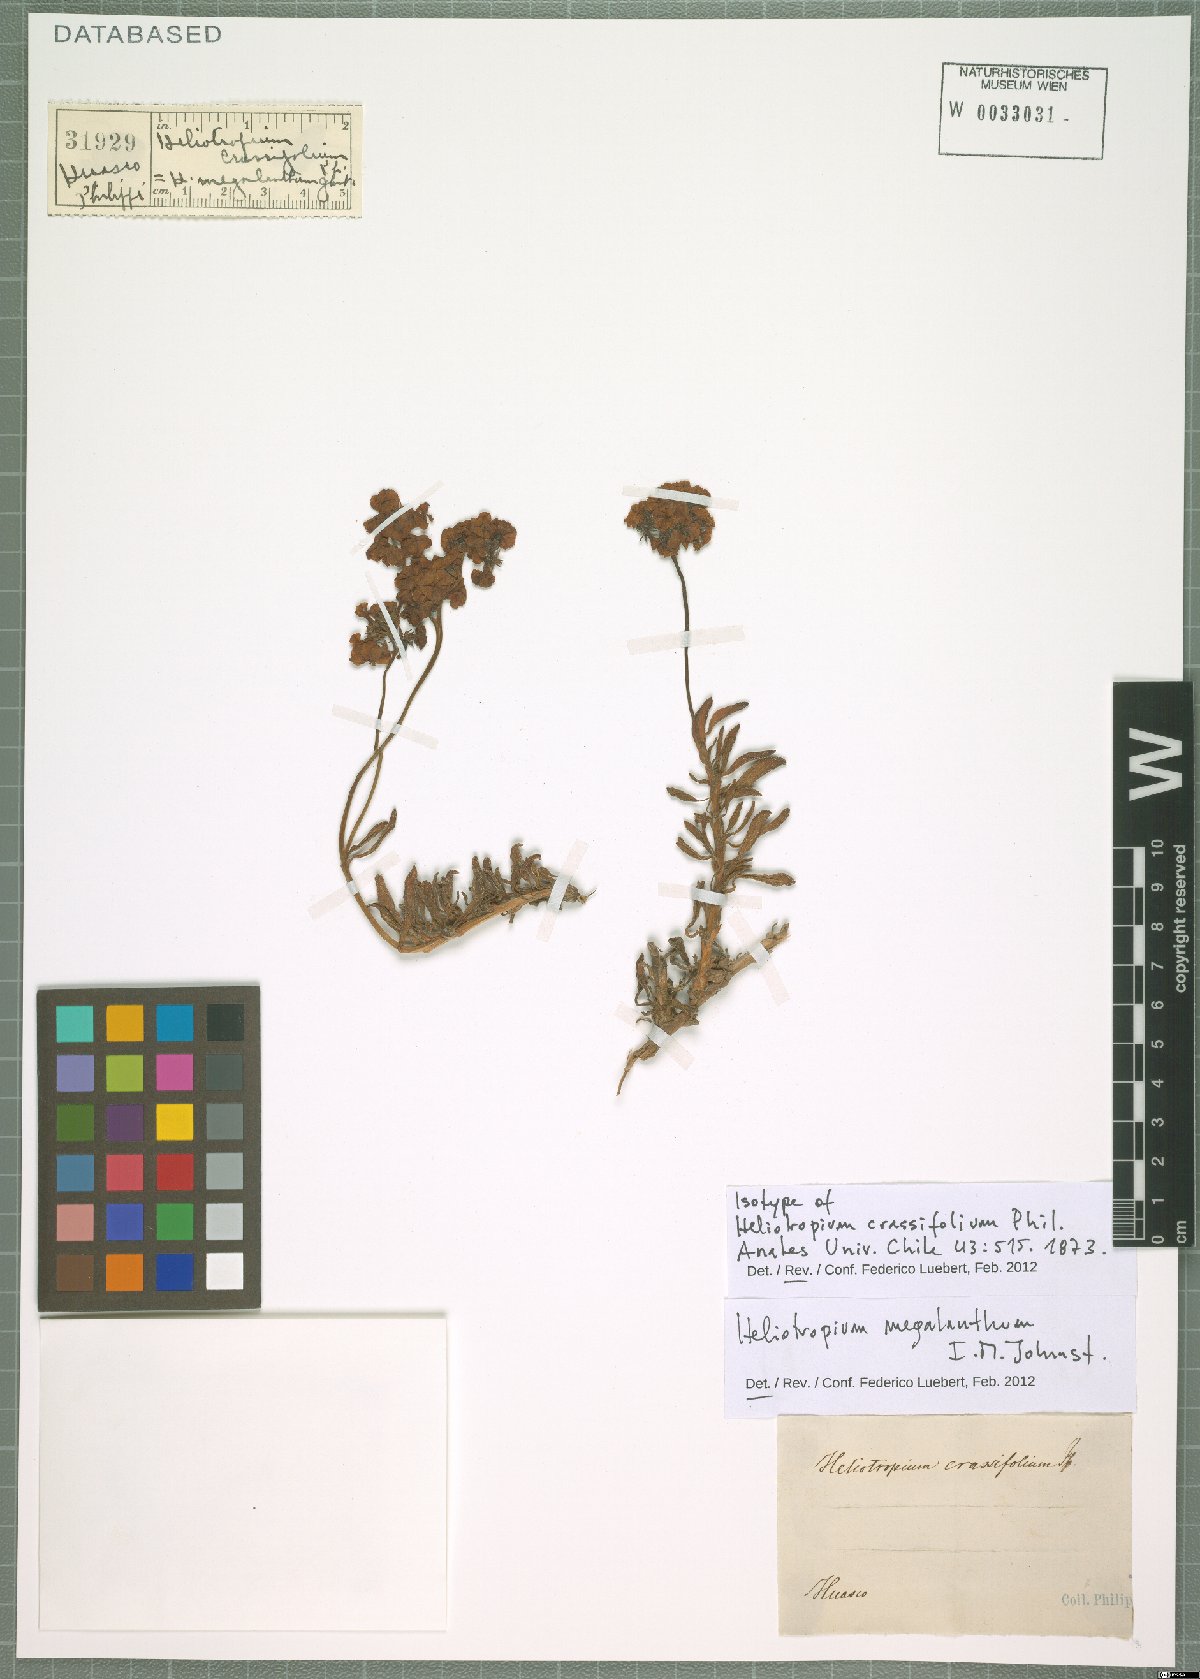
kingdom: Plantae
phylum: Tracheophyta
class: Magnoliopsida
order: Boraginales
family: Heliotropiaceae
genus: Heliotropium
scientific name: Heliotropium megalanthum
